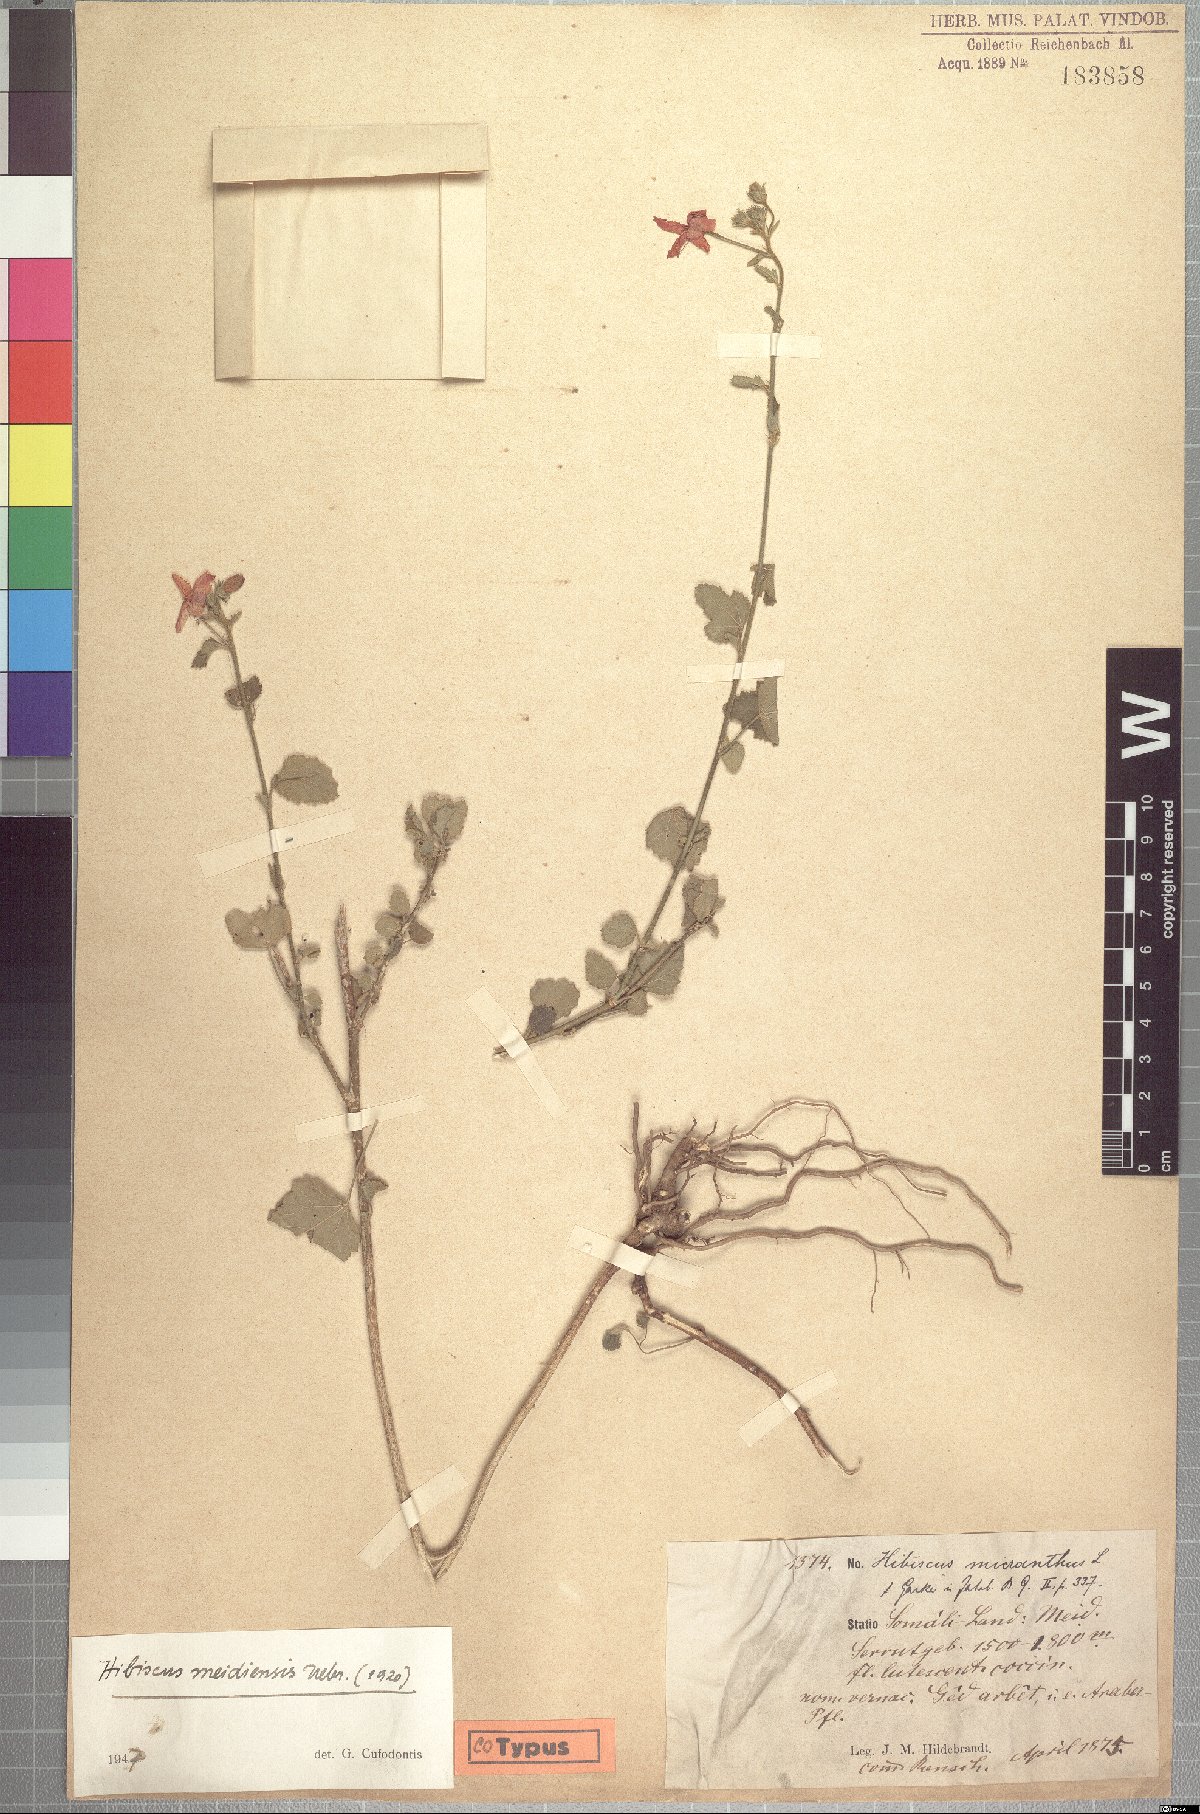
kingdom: Plantae
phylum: Tracheophyta
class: Magnoliopsida
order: Malvales
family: Malvaceae
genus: Hibiscus
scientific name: Hibiscus purpureus
